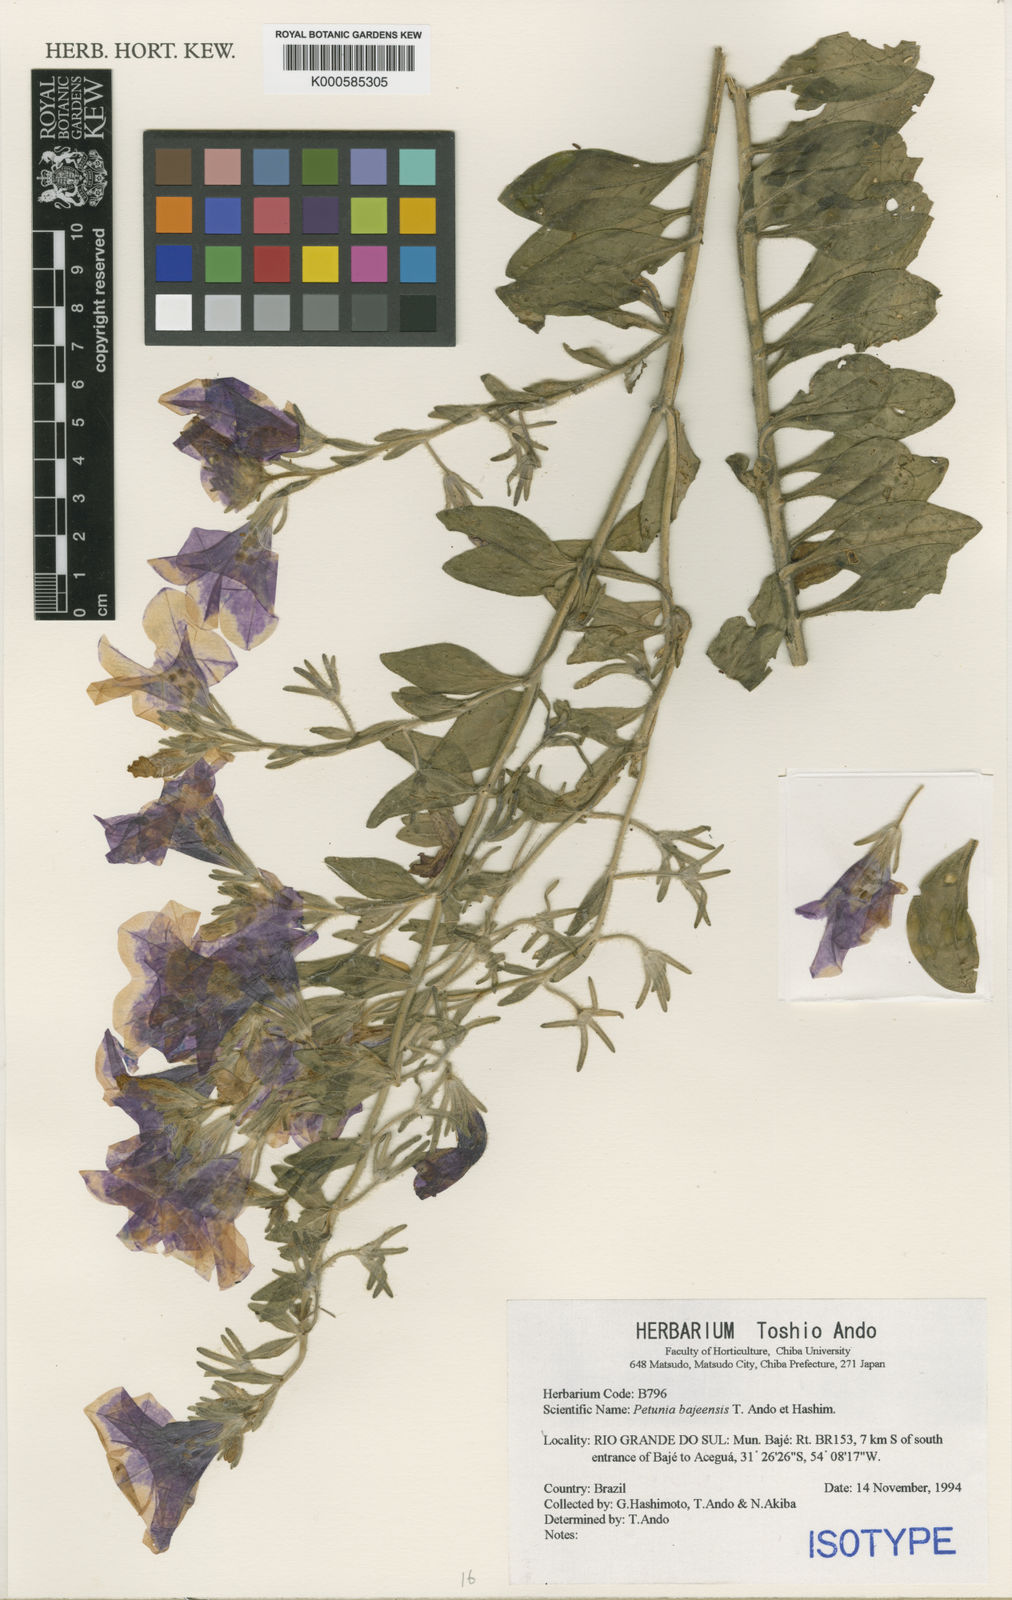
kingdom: Plantae
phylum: Tracheophyta
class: Magnoliopsida
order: Solanales
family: Solanaceae
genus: Petunia
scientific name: Petunia bajeensis
